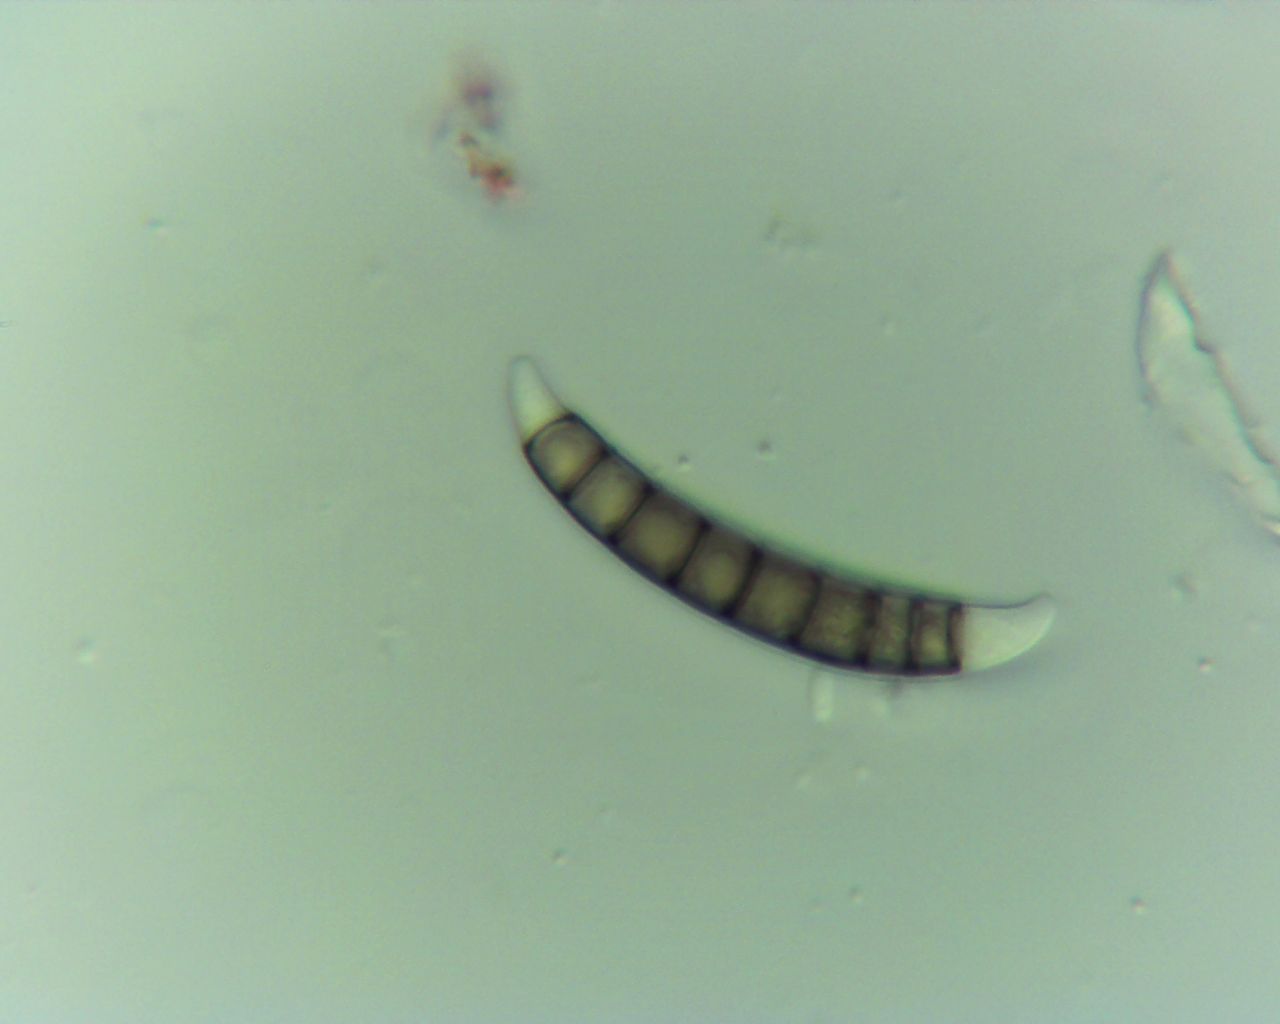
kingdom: Fungi
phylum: Ascomycota
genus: Excipularia
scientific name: Excipularia fusispora
